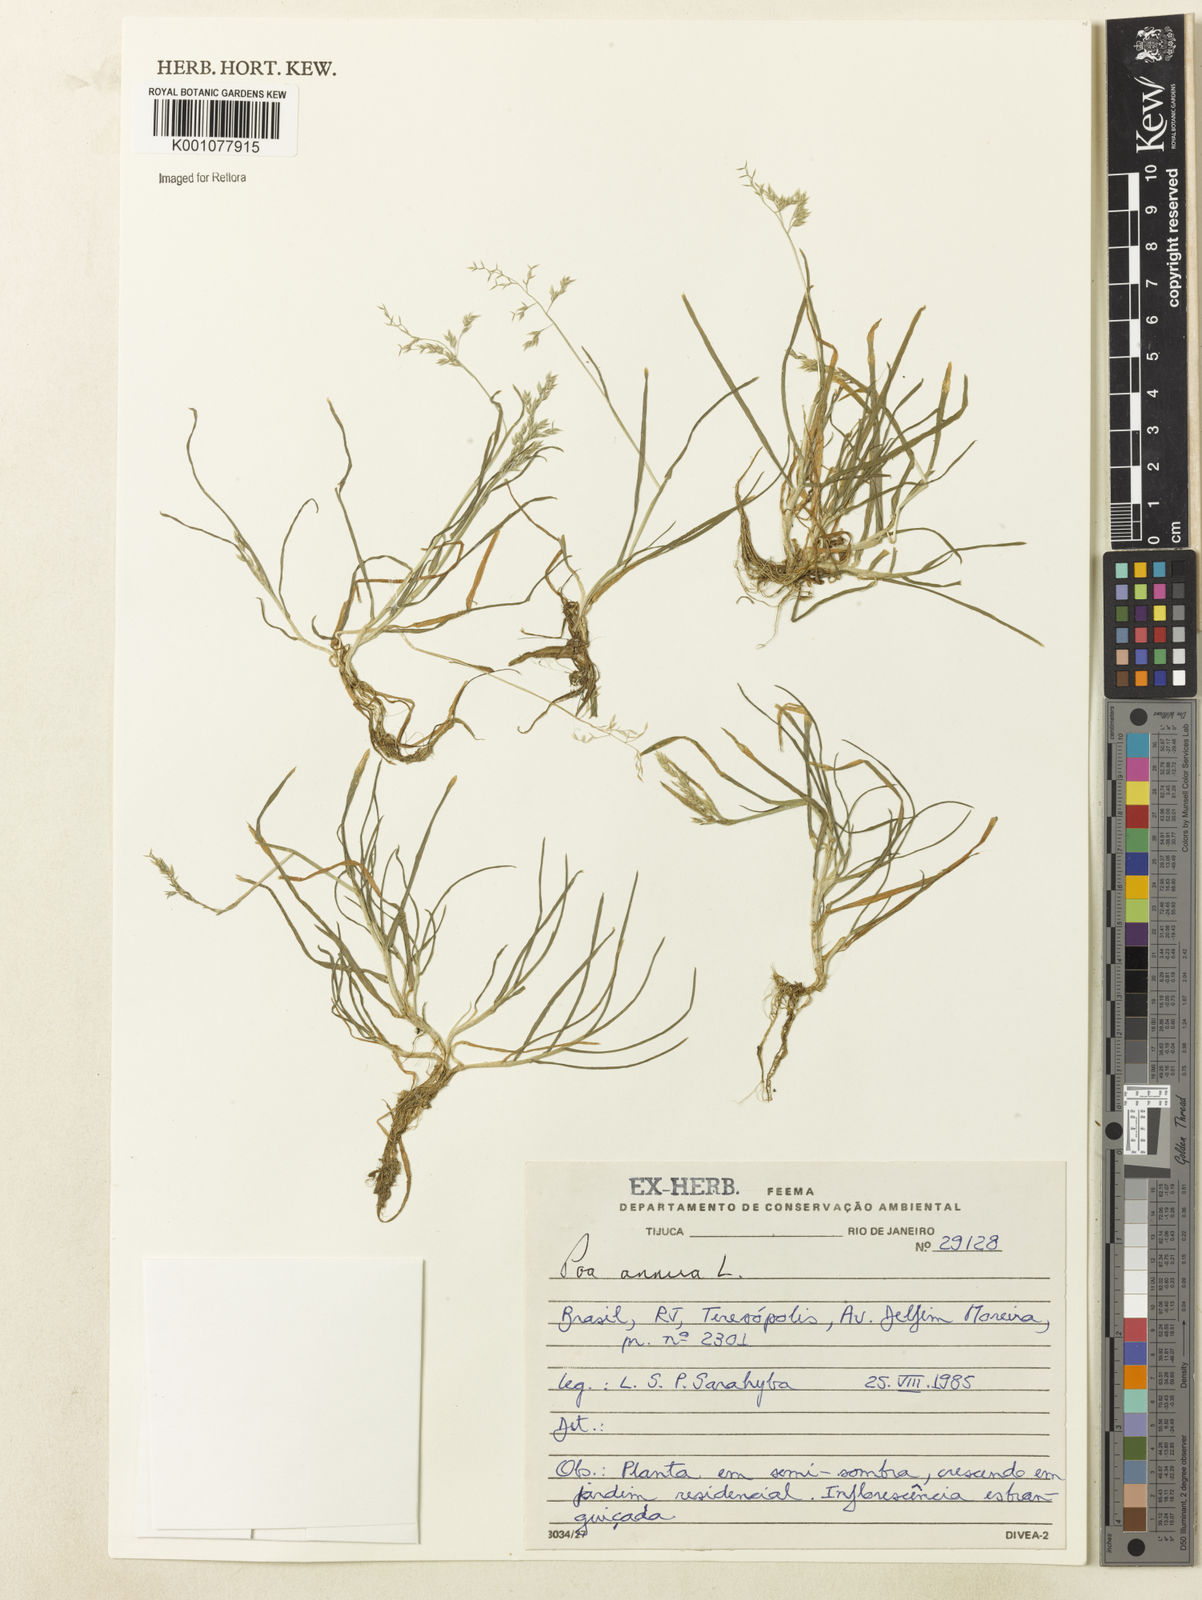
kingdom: Plantae
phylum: Tracheophyta
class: Liliopsida
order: Poales
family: Poaceae
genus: Poa
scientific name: Poa annua
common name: Annual bluegrass
